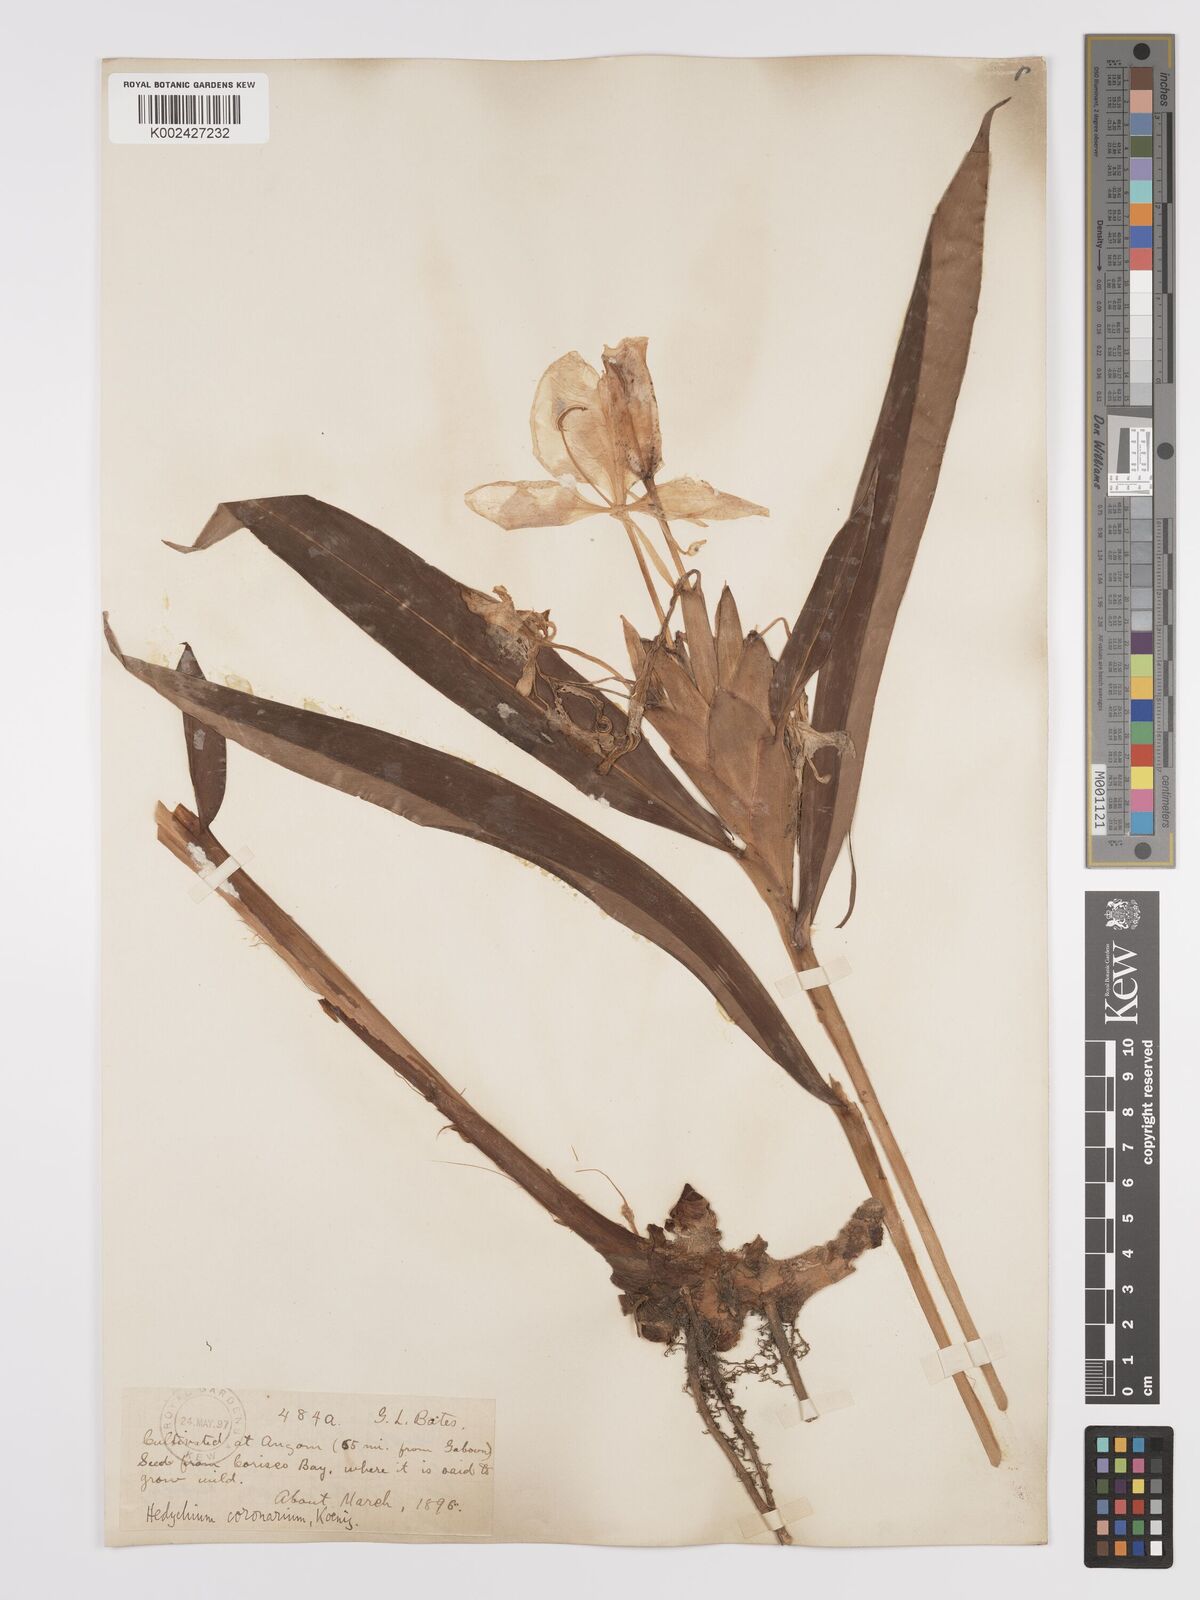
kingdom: Plantae
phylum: Tracheophyta
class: Liliopsida
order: Zingiberales
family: Zingiberaceae
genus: Hedychium
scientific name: Hedychium coronarium
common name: White garland-lily
